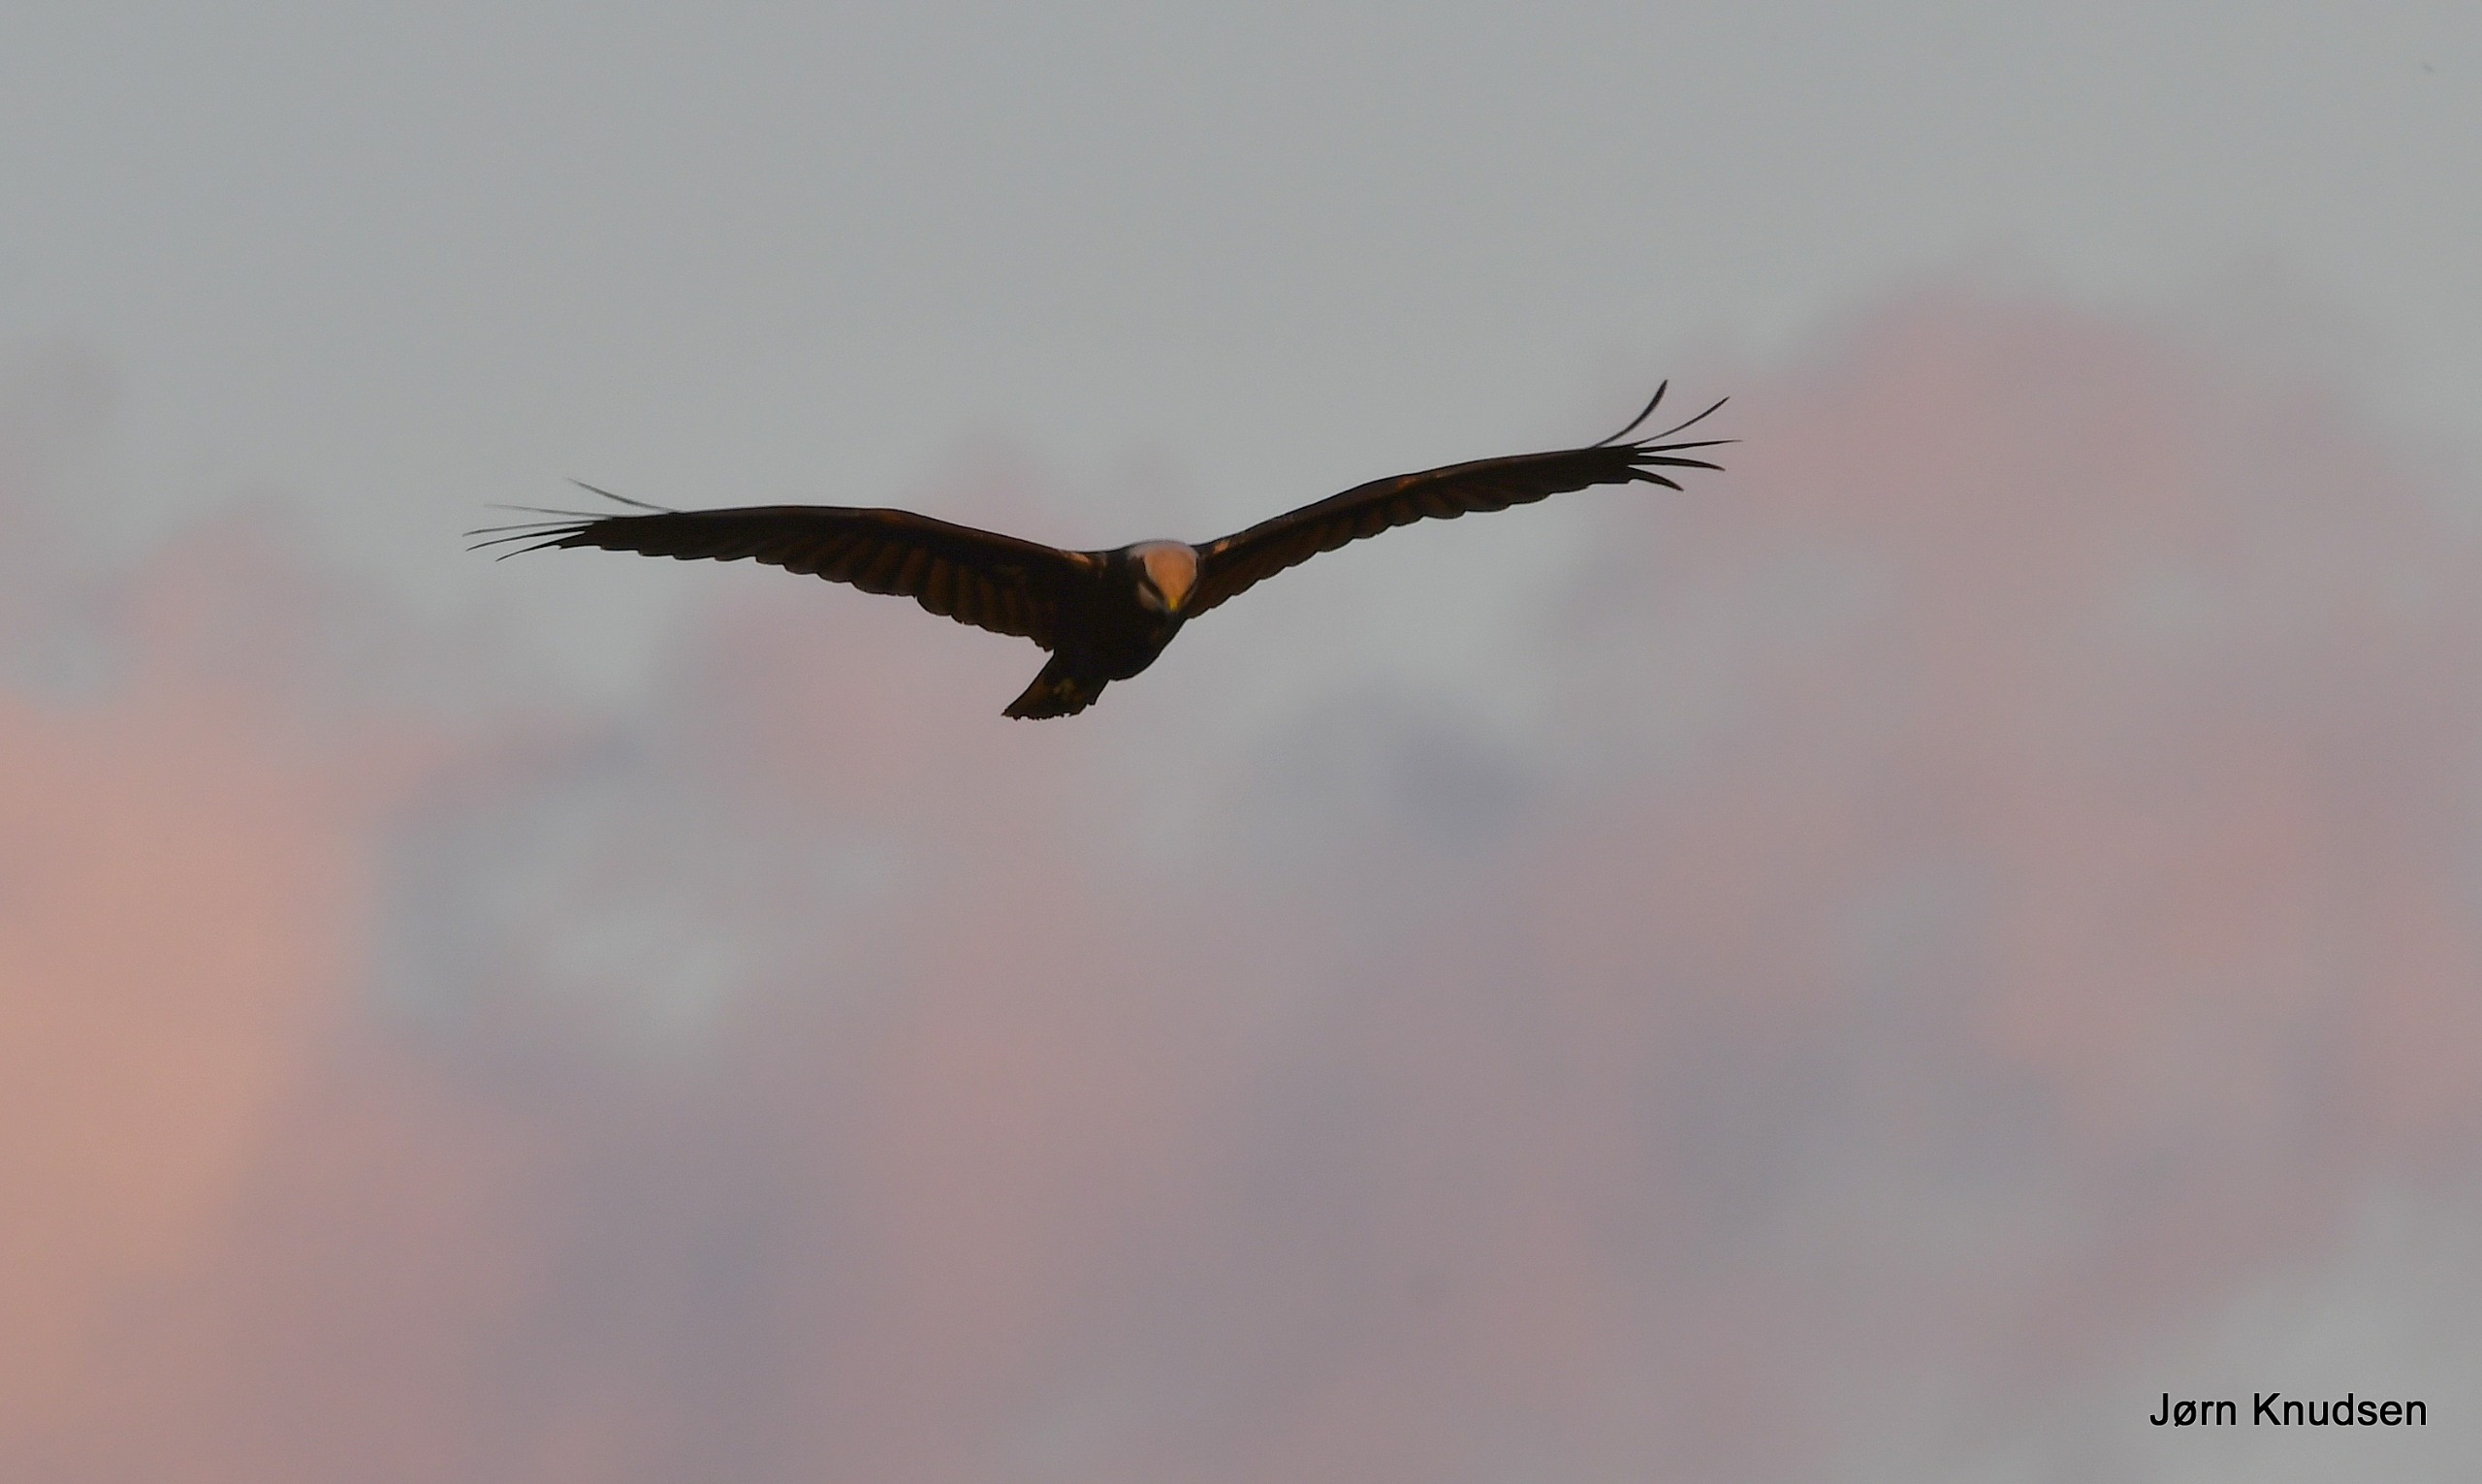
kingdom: Animalia
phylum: Chordata
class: Aves
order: Accipitriformes
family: Accipitridae
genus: Circus
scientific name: Circus aeruginosus
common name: Rørhøg
